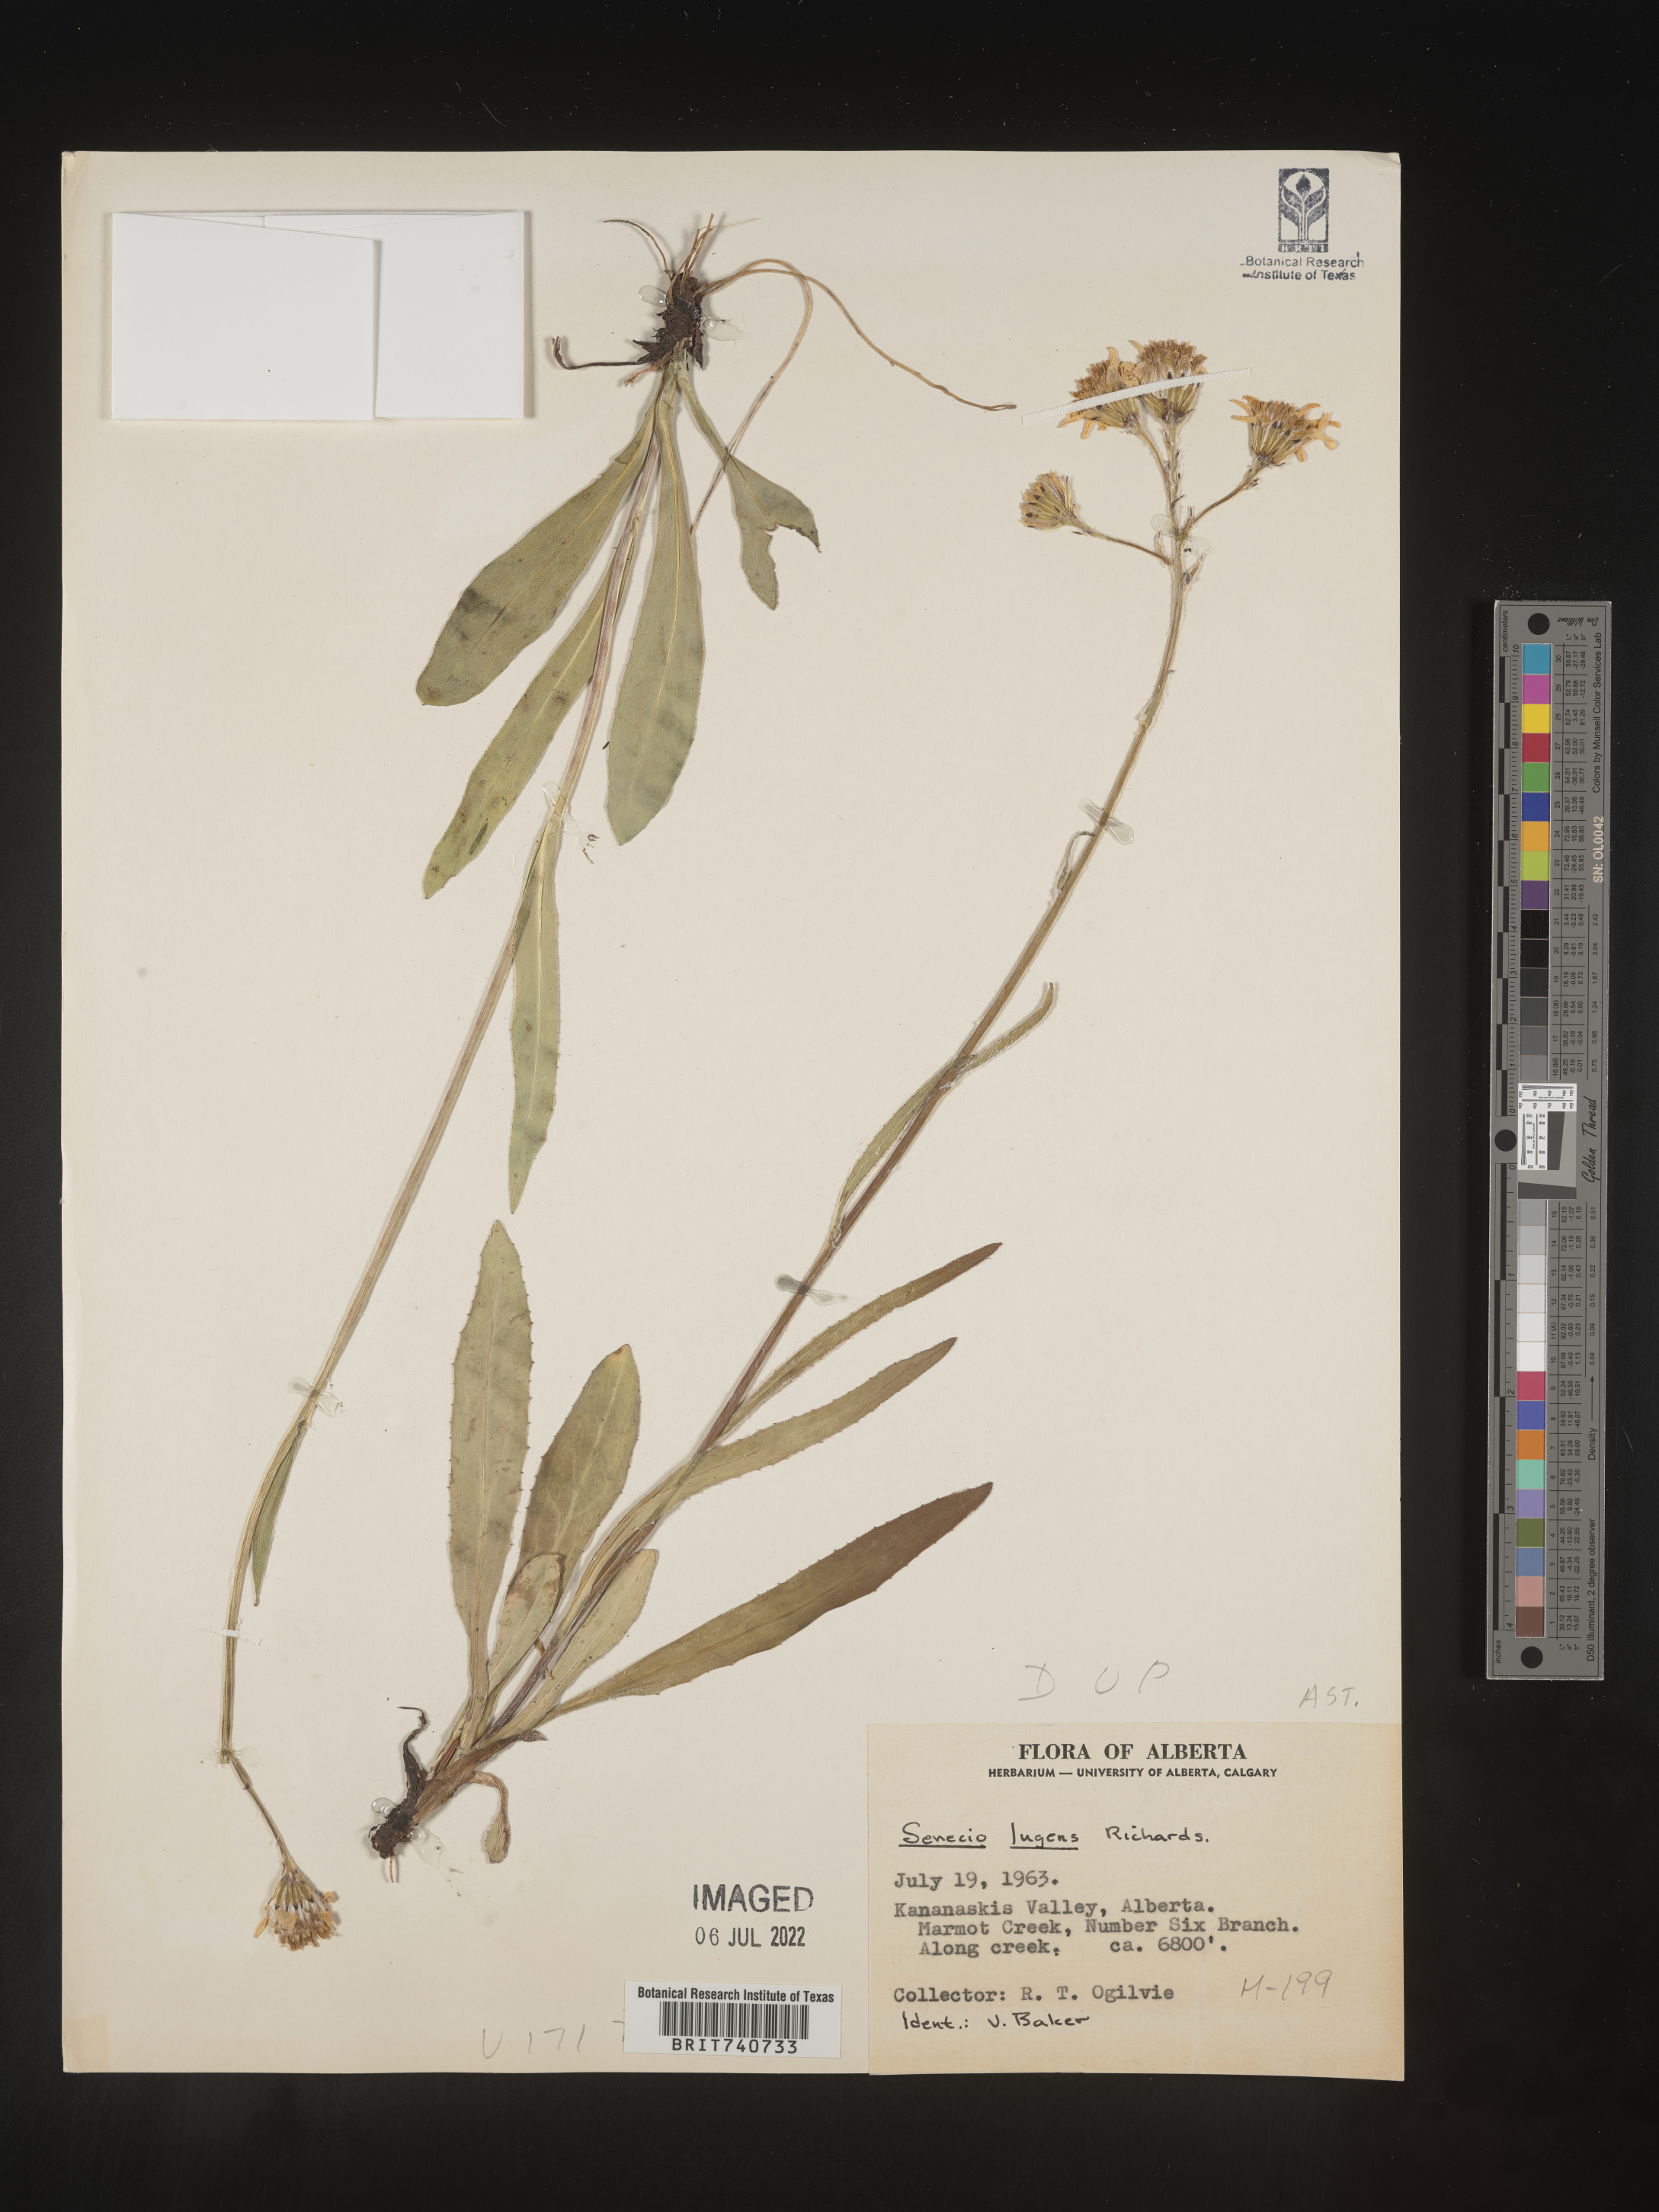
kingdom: Plantae
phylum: Tracheophyta
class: Magnoliopsida
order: Asterales
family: Asteraceae
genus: Senecio
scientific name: Senecio lugens
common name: Black-tip groundsel
